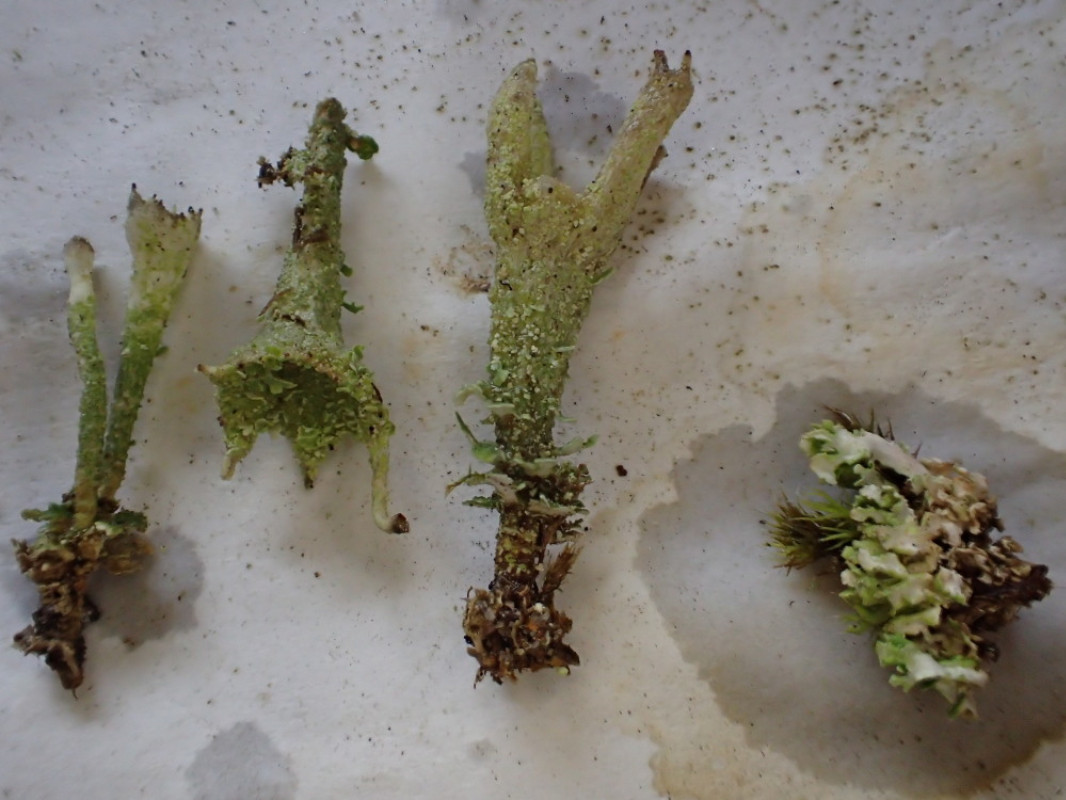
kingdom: Fungi
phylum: Ascomycota
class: Lecanoromycetes
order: Lecanorales
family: Cladoniaceae
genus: Cladonia
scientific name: Cladonia diversa
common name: rød bægerlav
